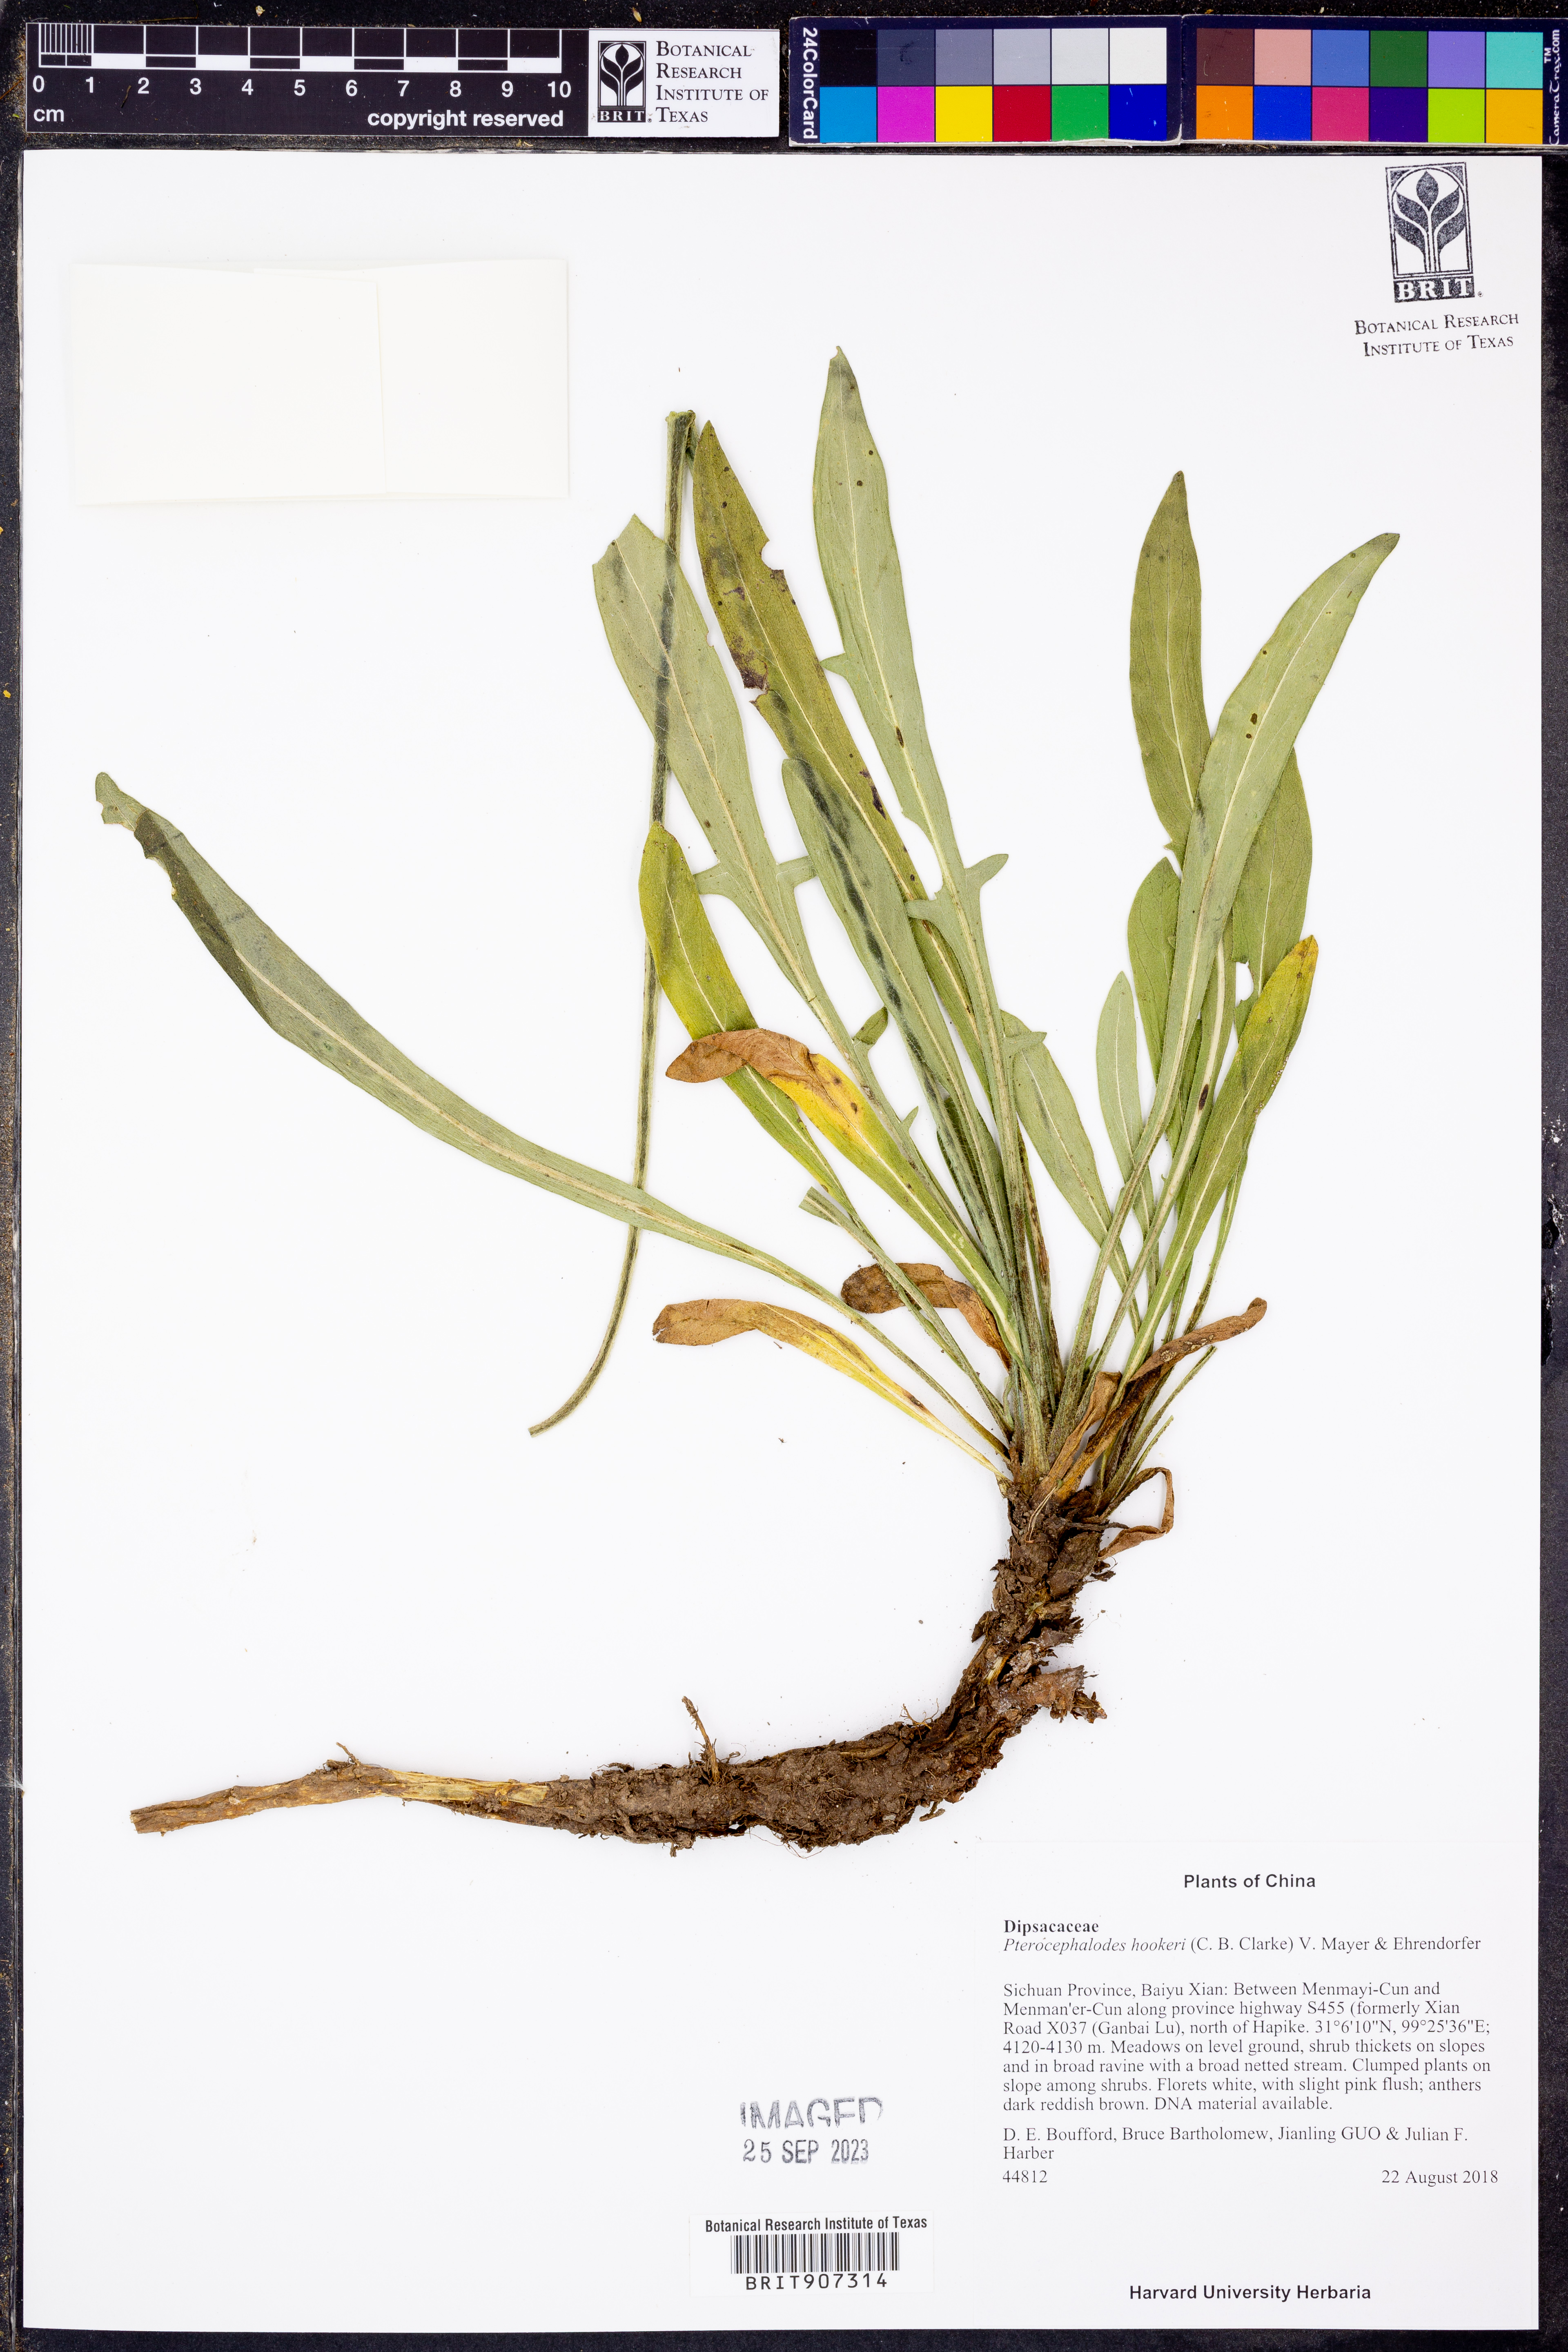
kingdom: Plantae
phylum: Tracheophyta
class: Magnoliopsida
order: Dipsacales
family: Caprifoliaceae
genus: Bassecoia
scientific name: Bassecoia hookeri
